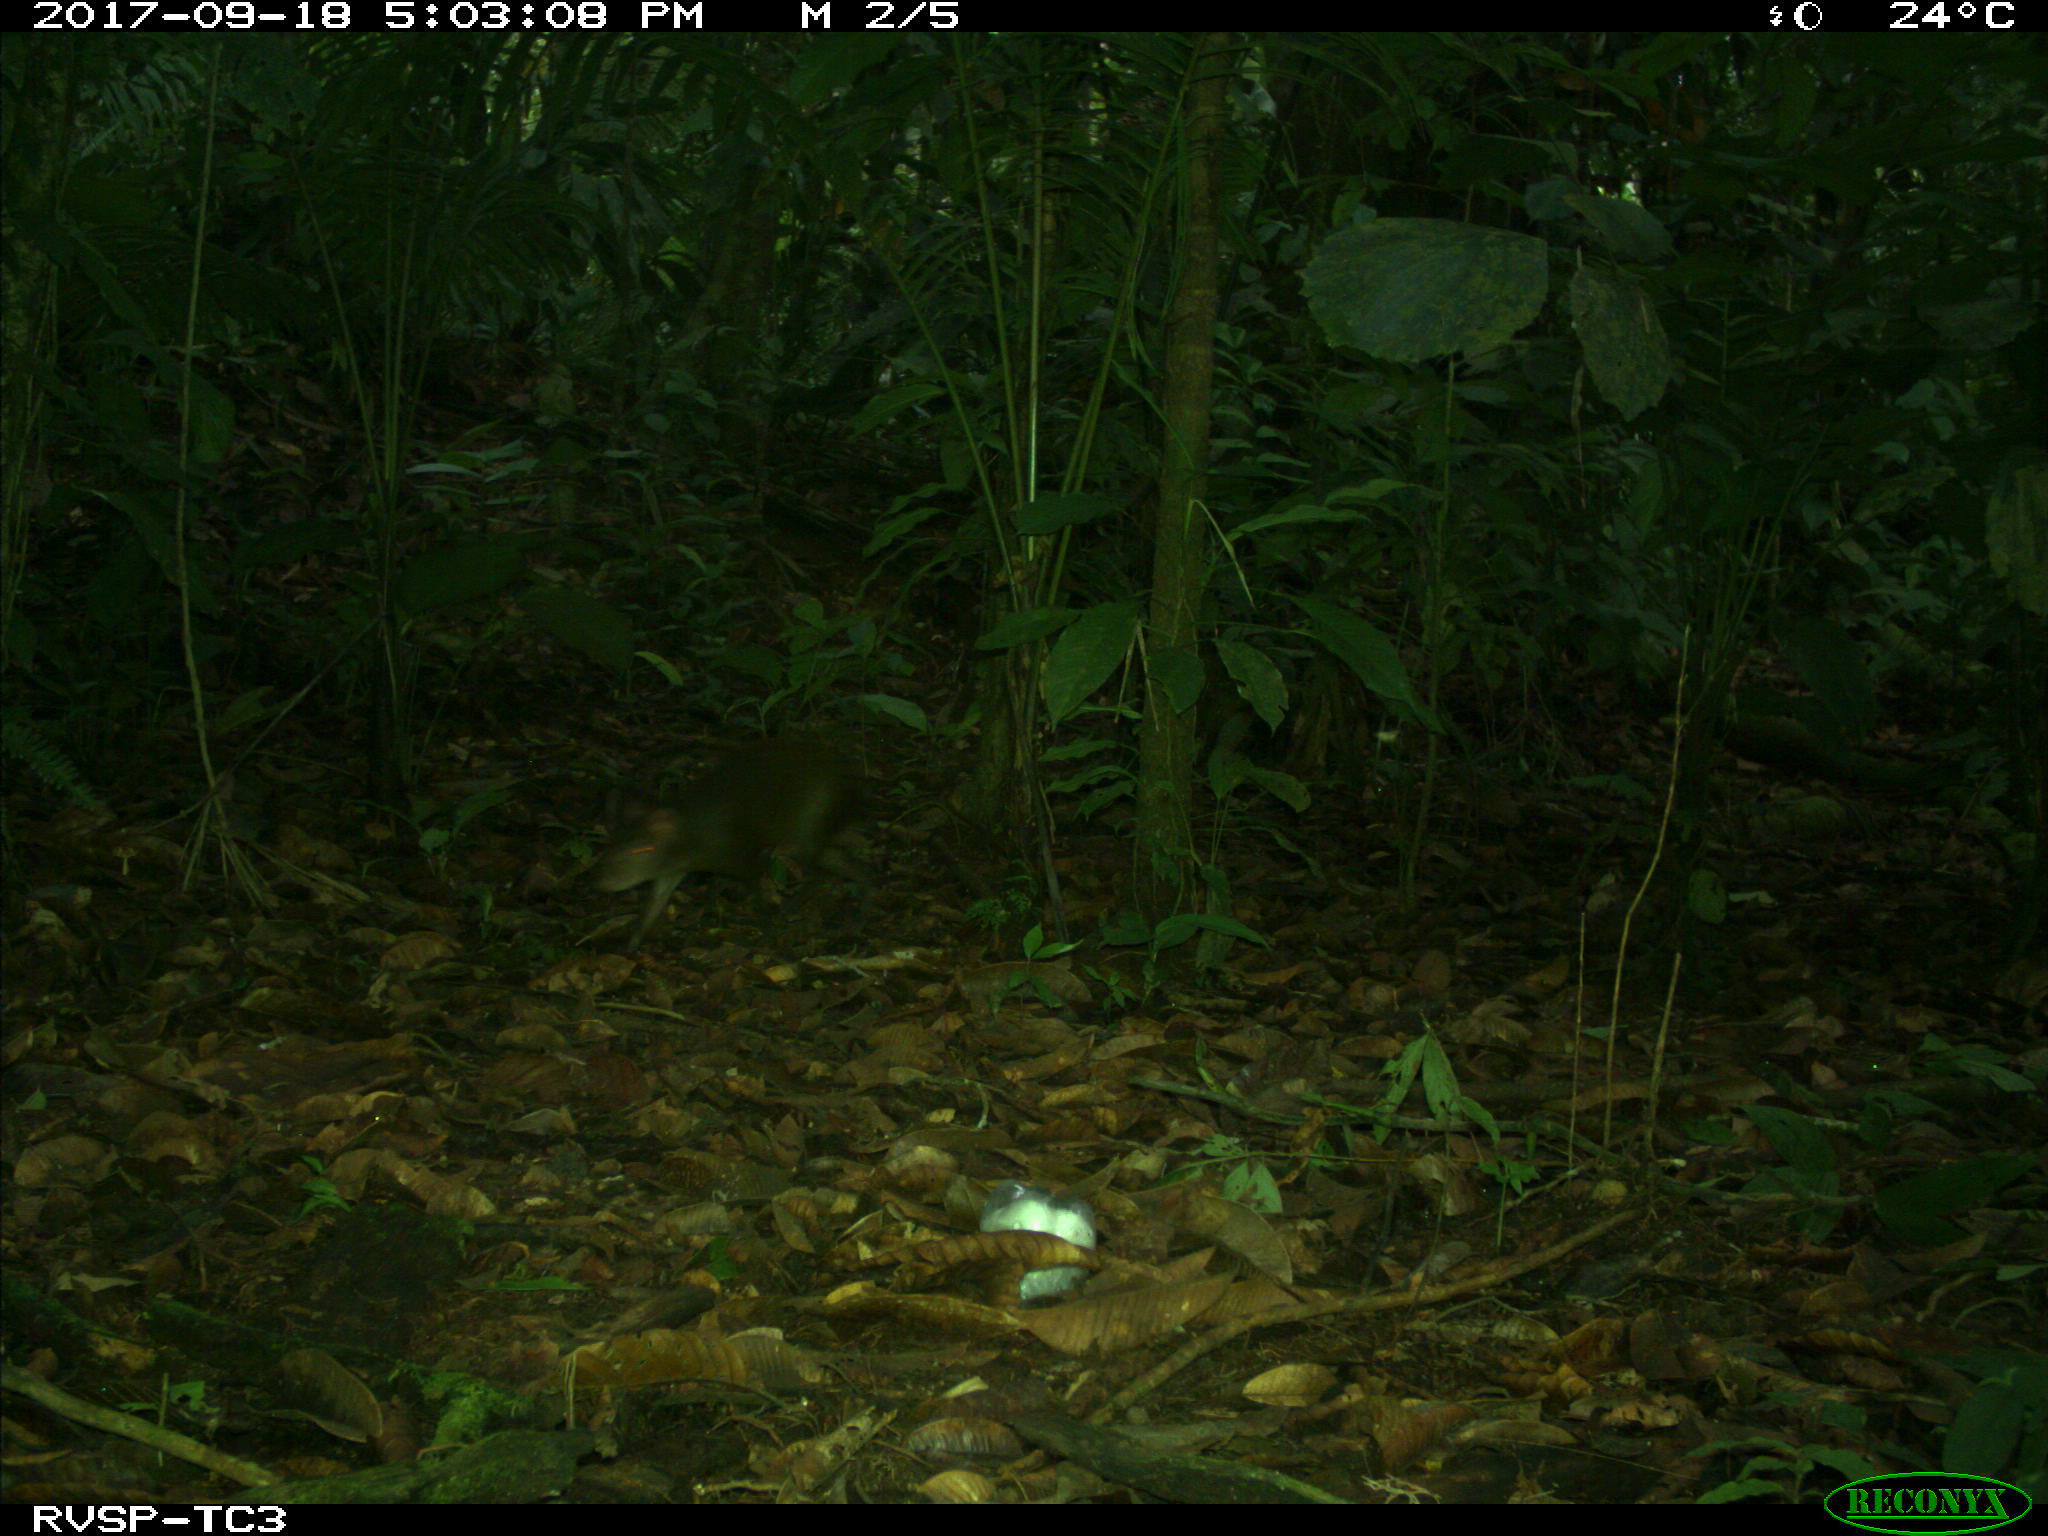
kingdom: Animalia
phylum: Chordata
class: Mammalia
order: Rodentia
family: Dasyproctidae
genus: Dasyprocta
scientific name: Dasyprocta punctata
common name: Central american agouti
